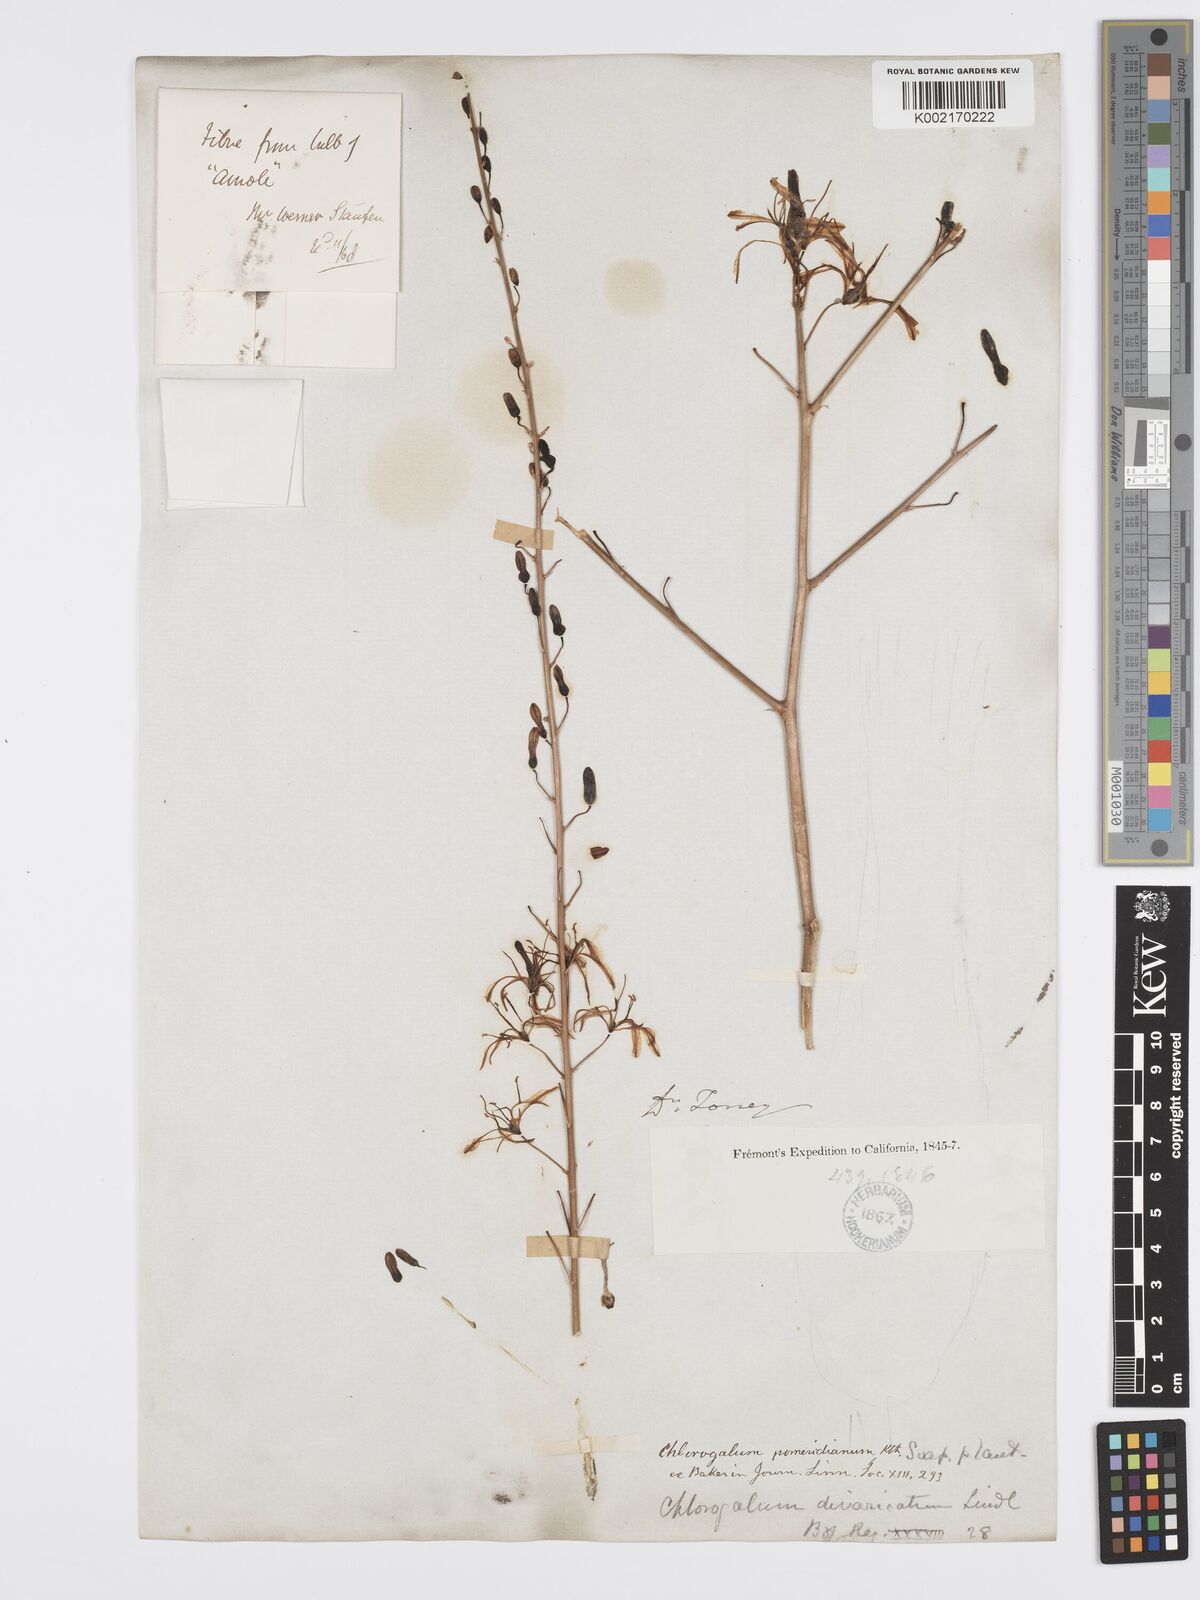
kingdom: Plantae
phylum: Tracheophyta
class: Liliopsida
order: Asparagales
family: Asparagaceae
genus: Chlorogalum
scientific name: Chlorogalum pomeridianum
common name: Amole
